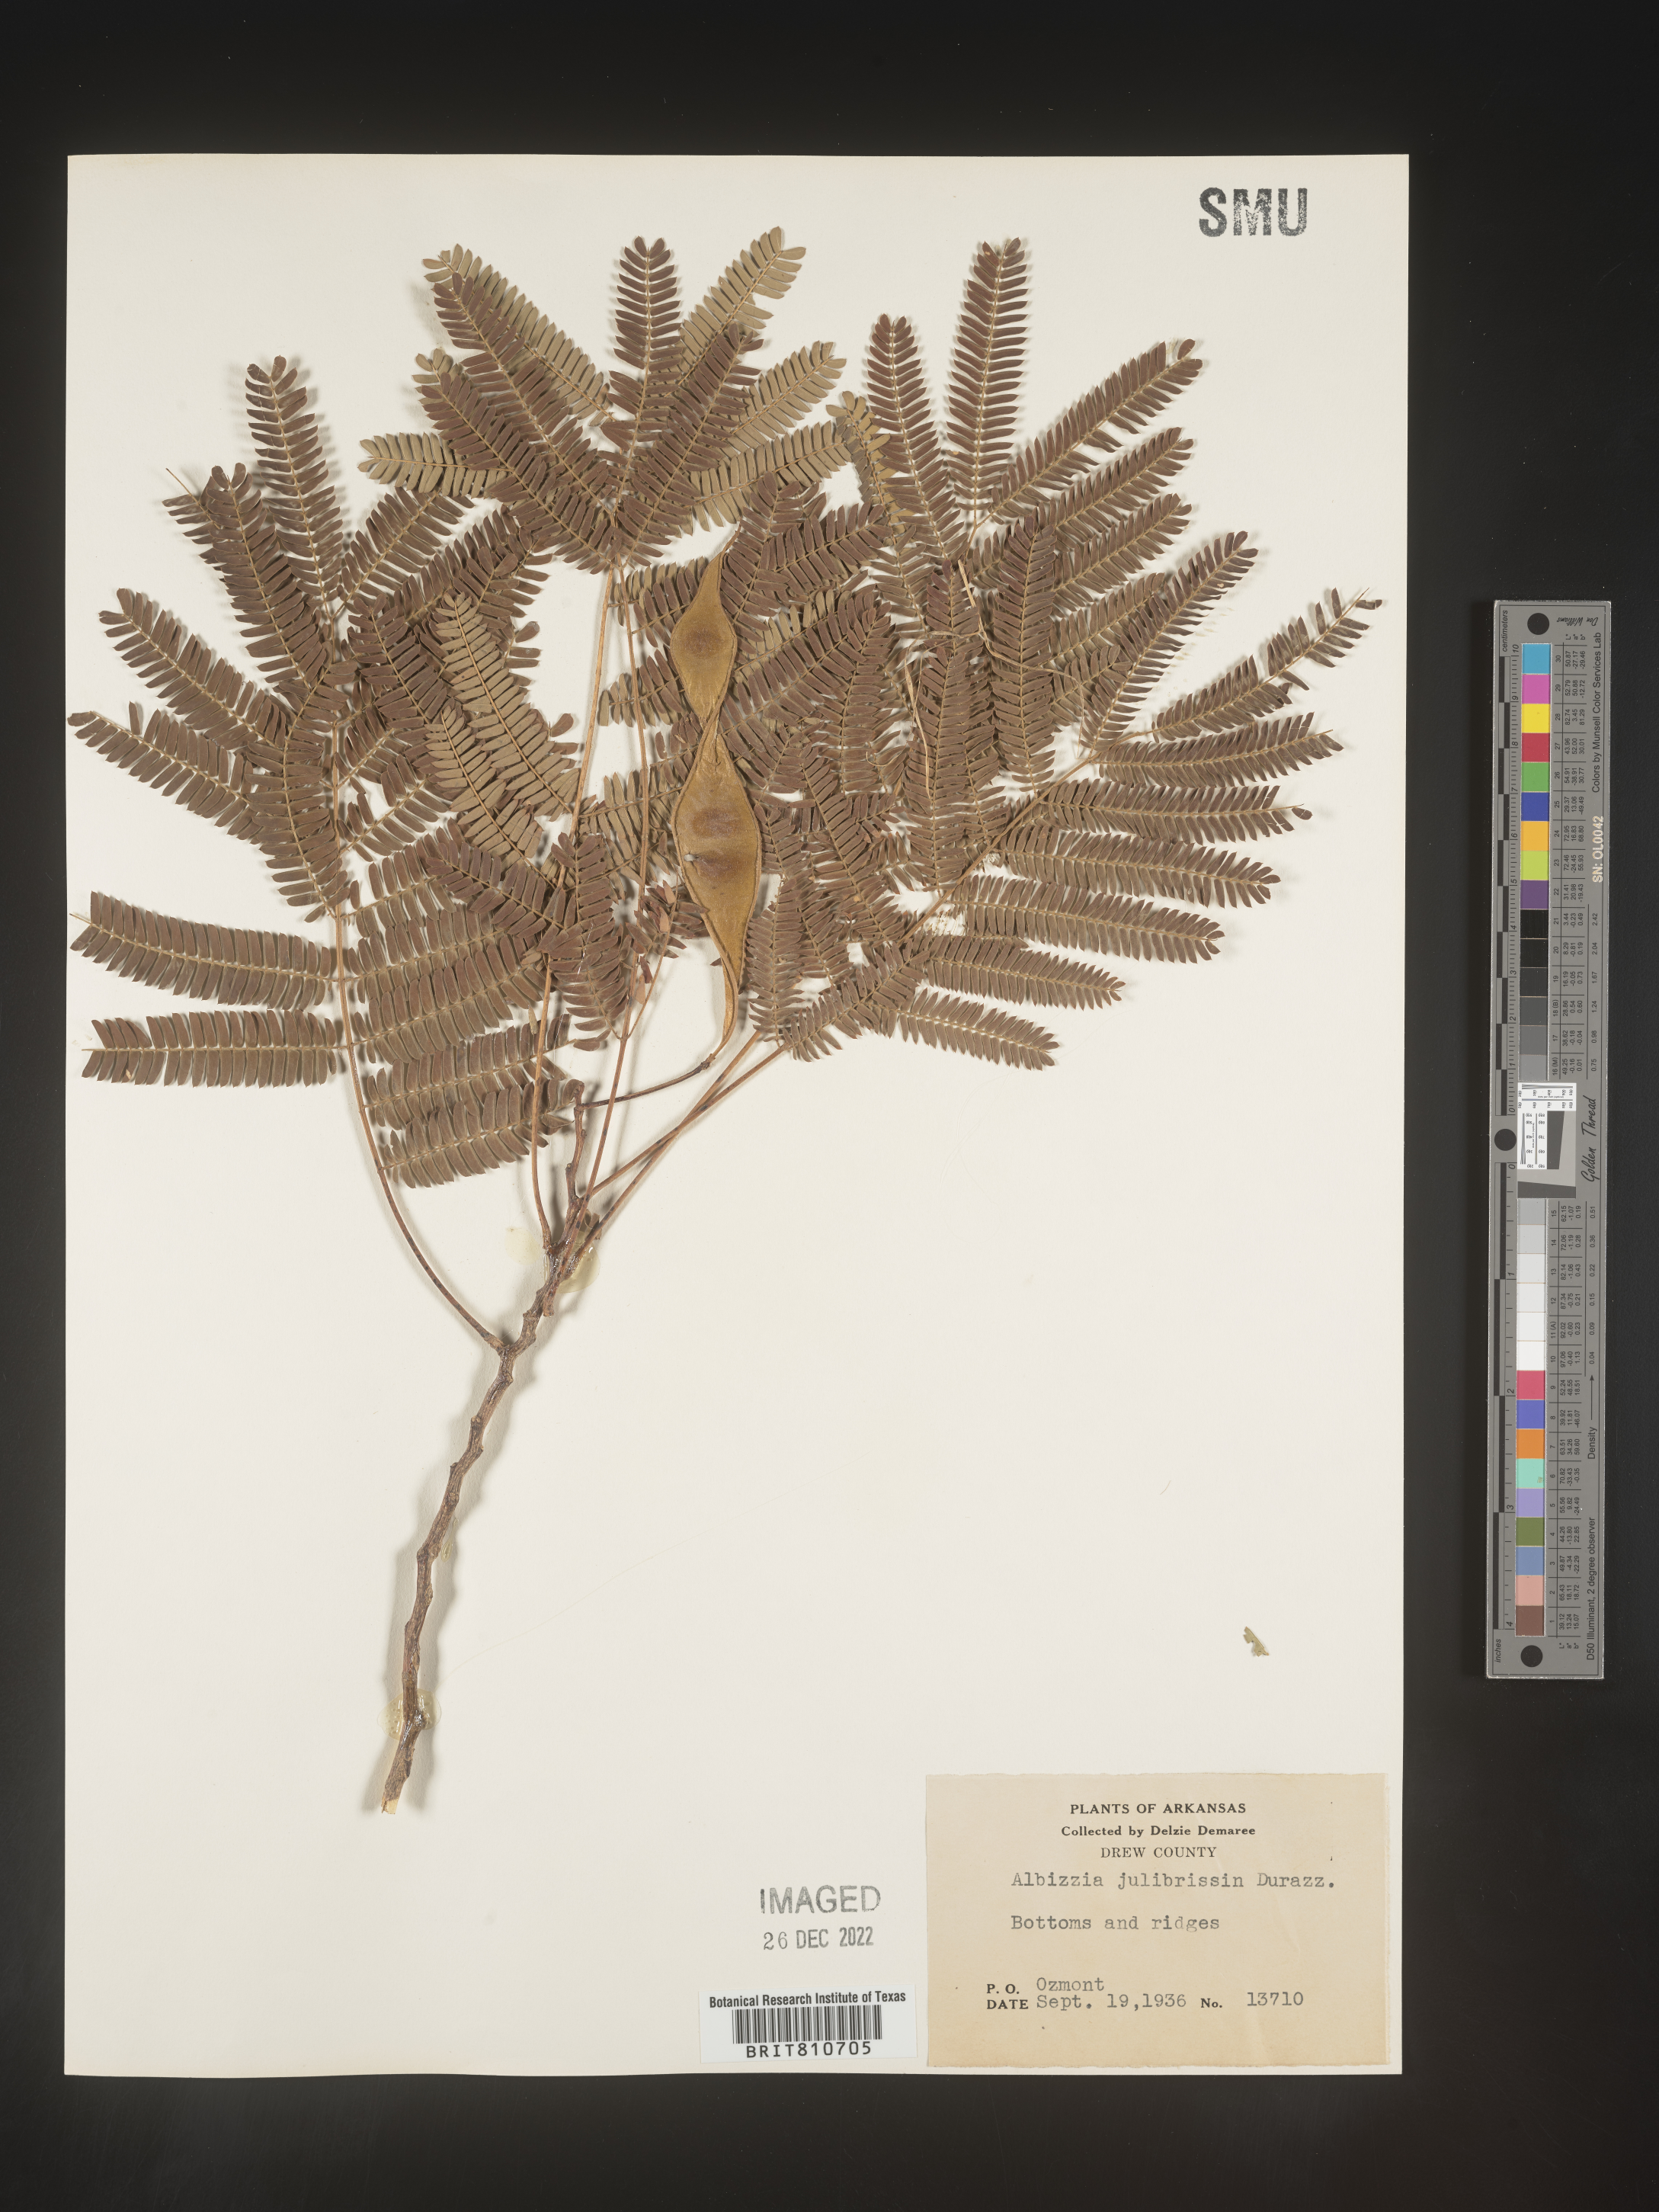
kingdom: Plantae
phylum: Tracheophyta
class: Magnoliopsida
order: Fabales
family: Fabaceae
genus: Albizia
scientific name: Albizia
